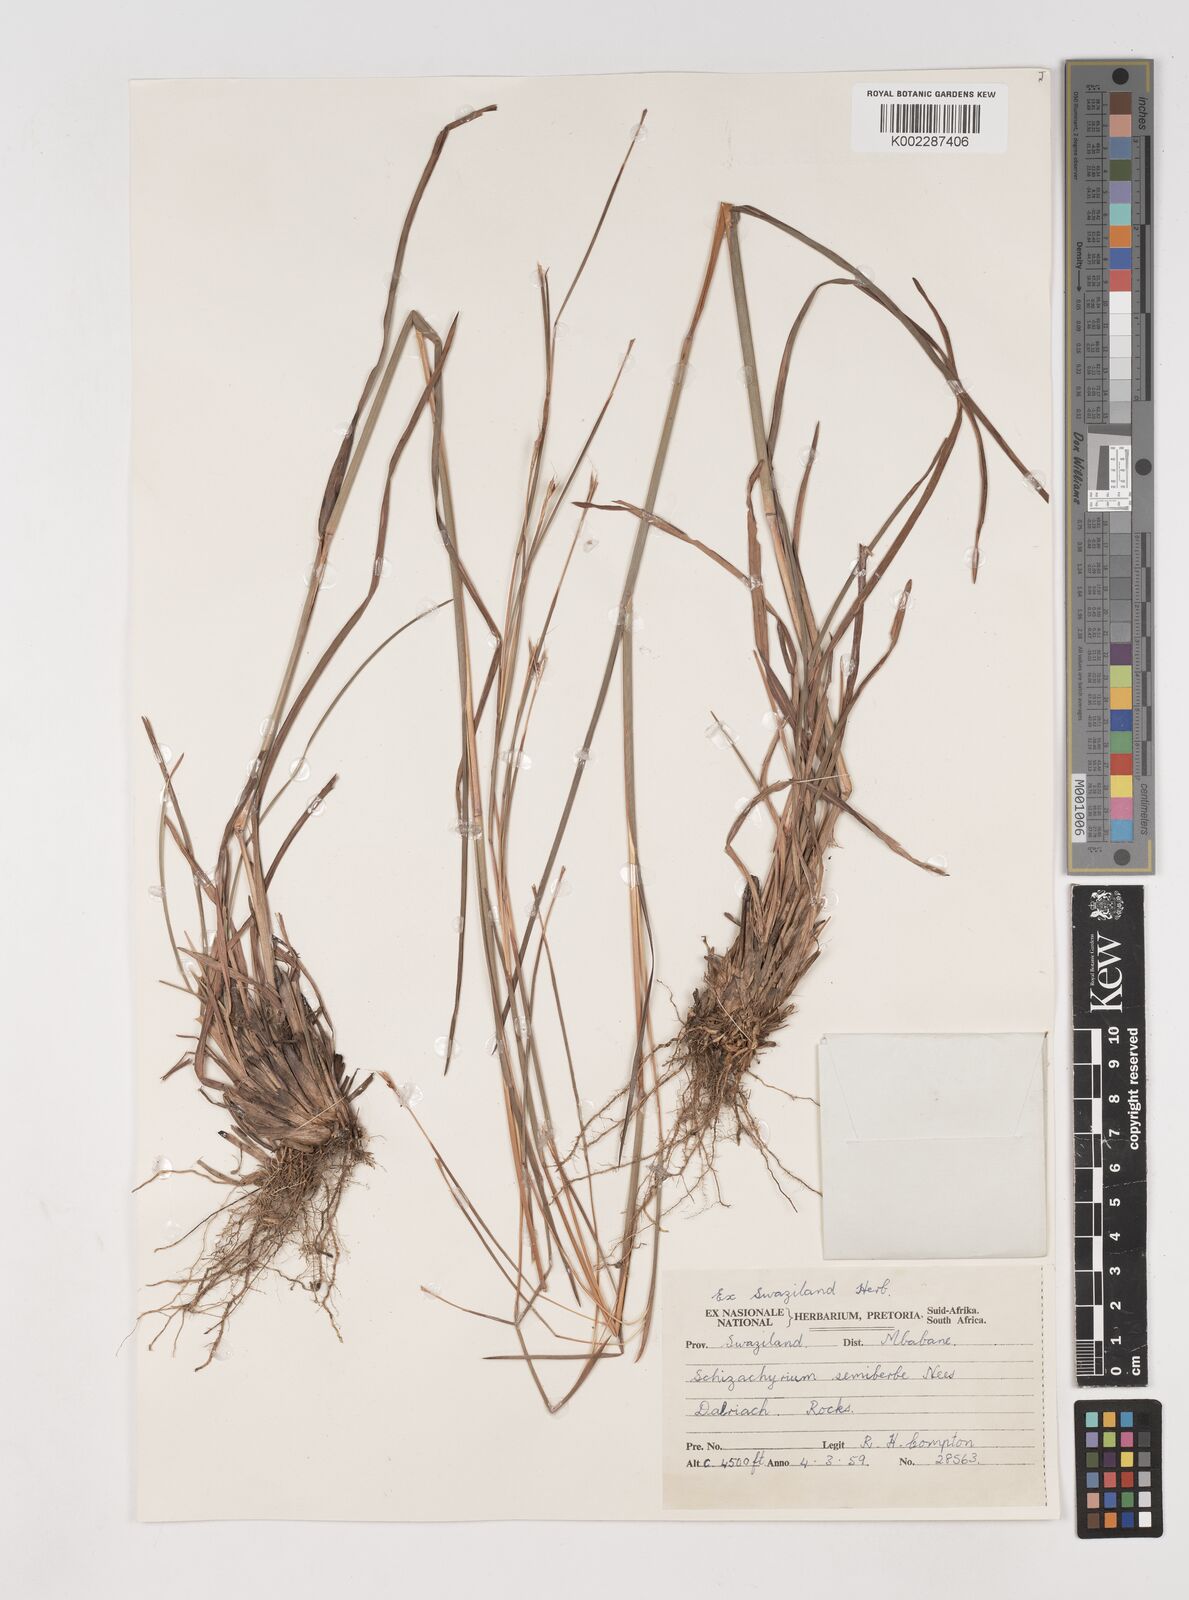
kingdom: Plantae
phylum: Tracheophyta
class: Liliopsida
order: Poales
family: Poaceae
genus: Schizachyrium
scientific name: Schizachyrium sanguineum
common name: Crimson bluestem
